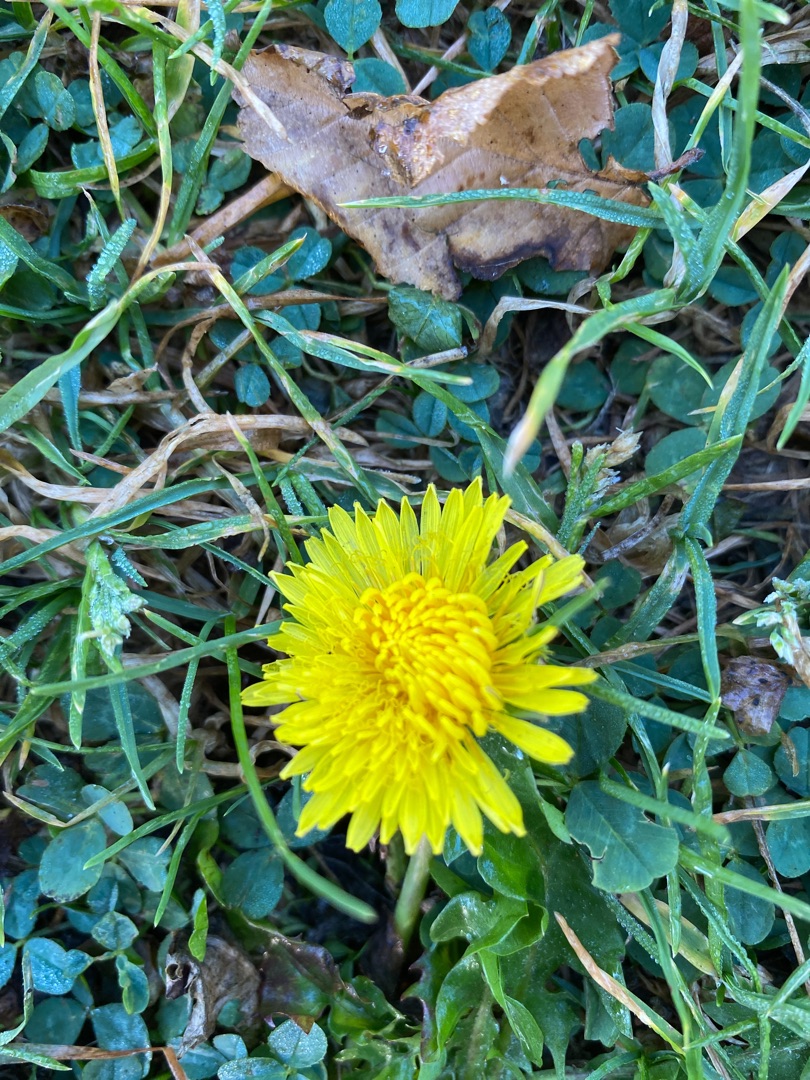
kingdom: Plantae
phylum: Tracheophyta
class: Magnoliopsida
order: Asterales
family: Asteraceae
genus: Taraxacum
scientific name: Taraxacum
